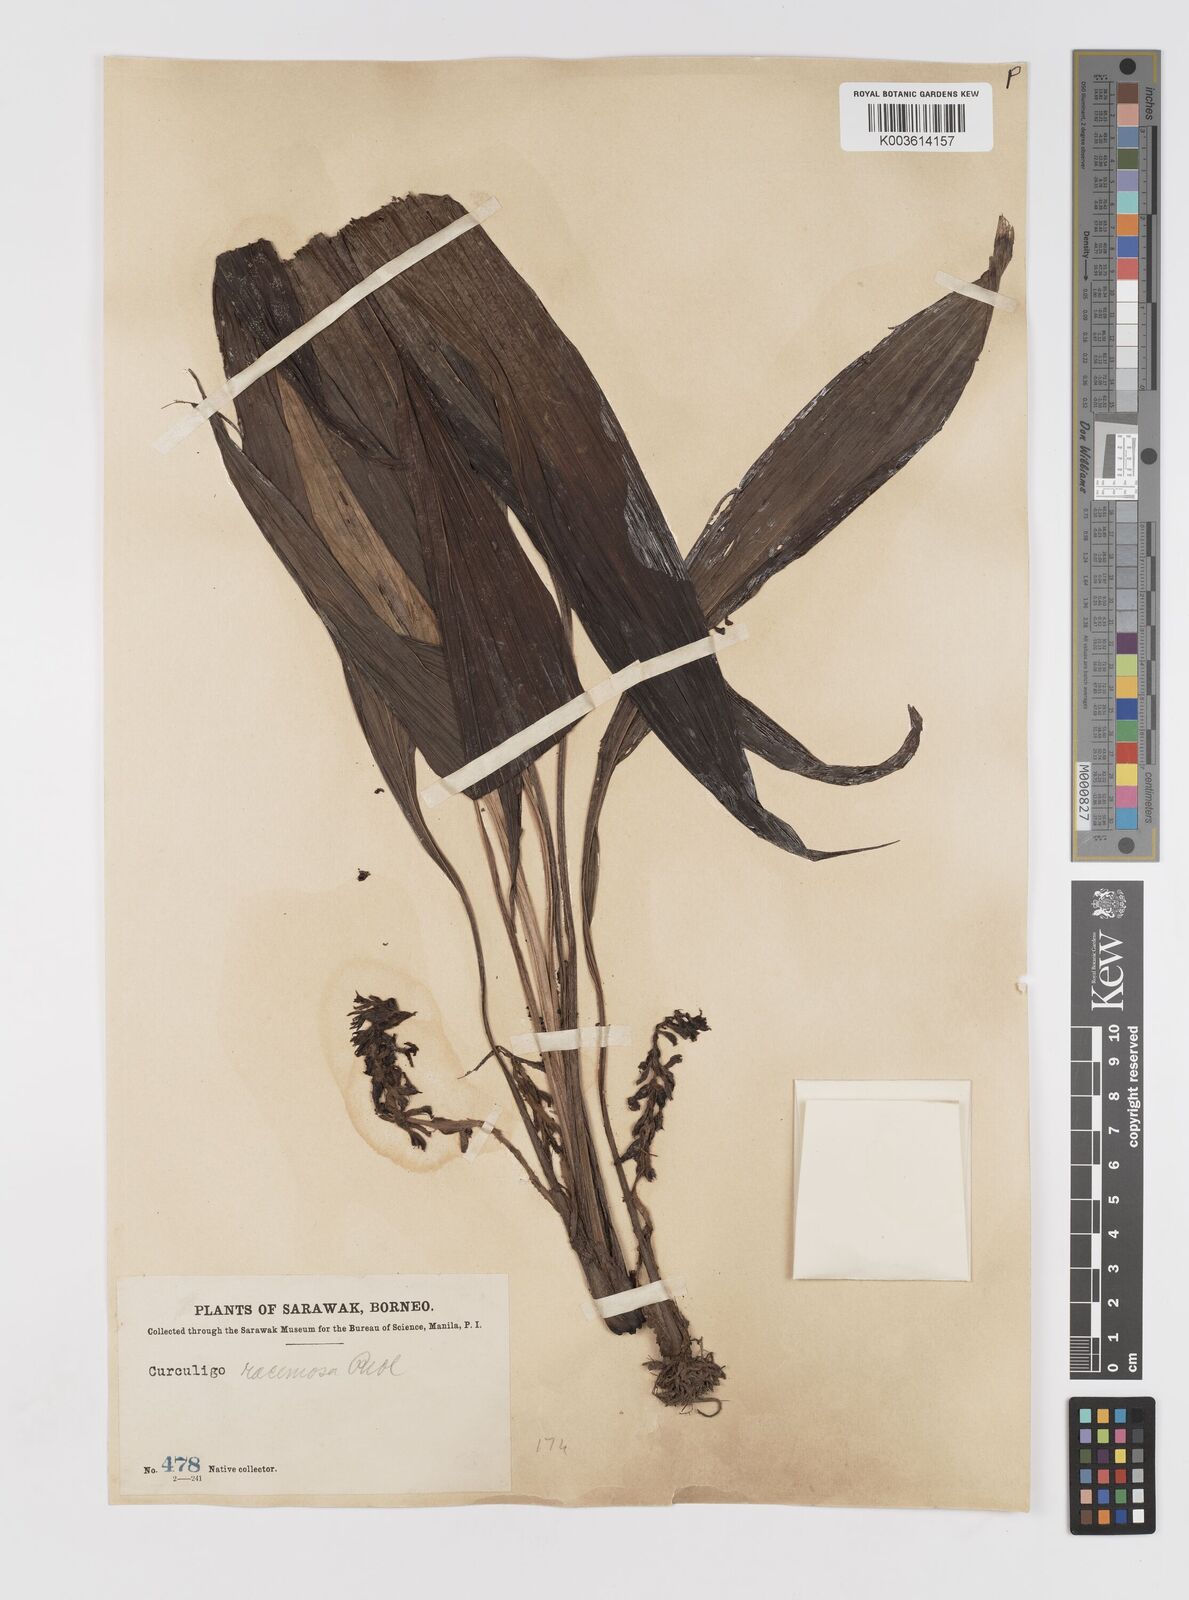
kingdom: Plantae
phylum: Tracheophyta
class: Liliopsida
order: Asparagales
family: Hypoxidaceae
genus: Curculigo
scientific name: Curculigo racemosa
